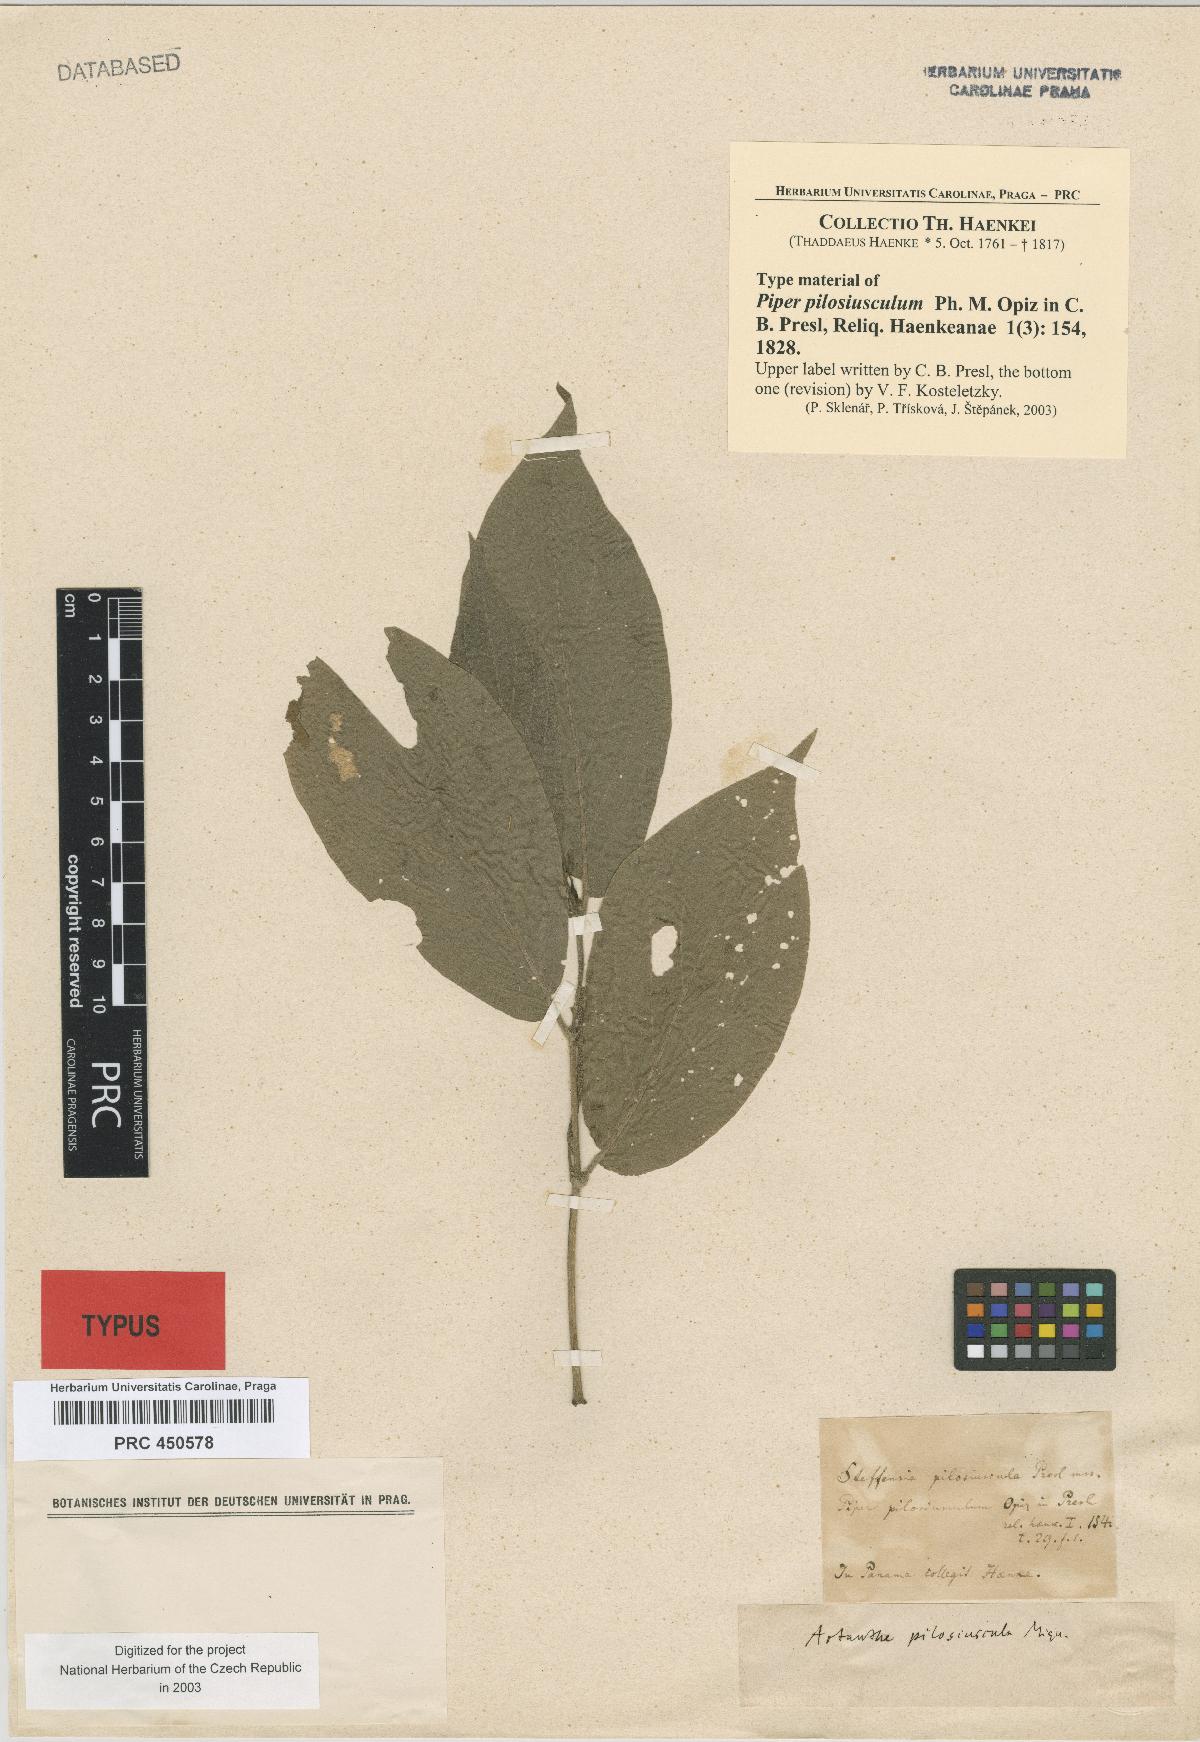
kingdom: Plantae
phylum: Tracheophyta
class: Magnoliopsida
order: Piperales
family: Piperaceae
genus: Piper
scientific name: Piper pilosiusculum
